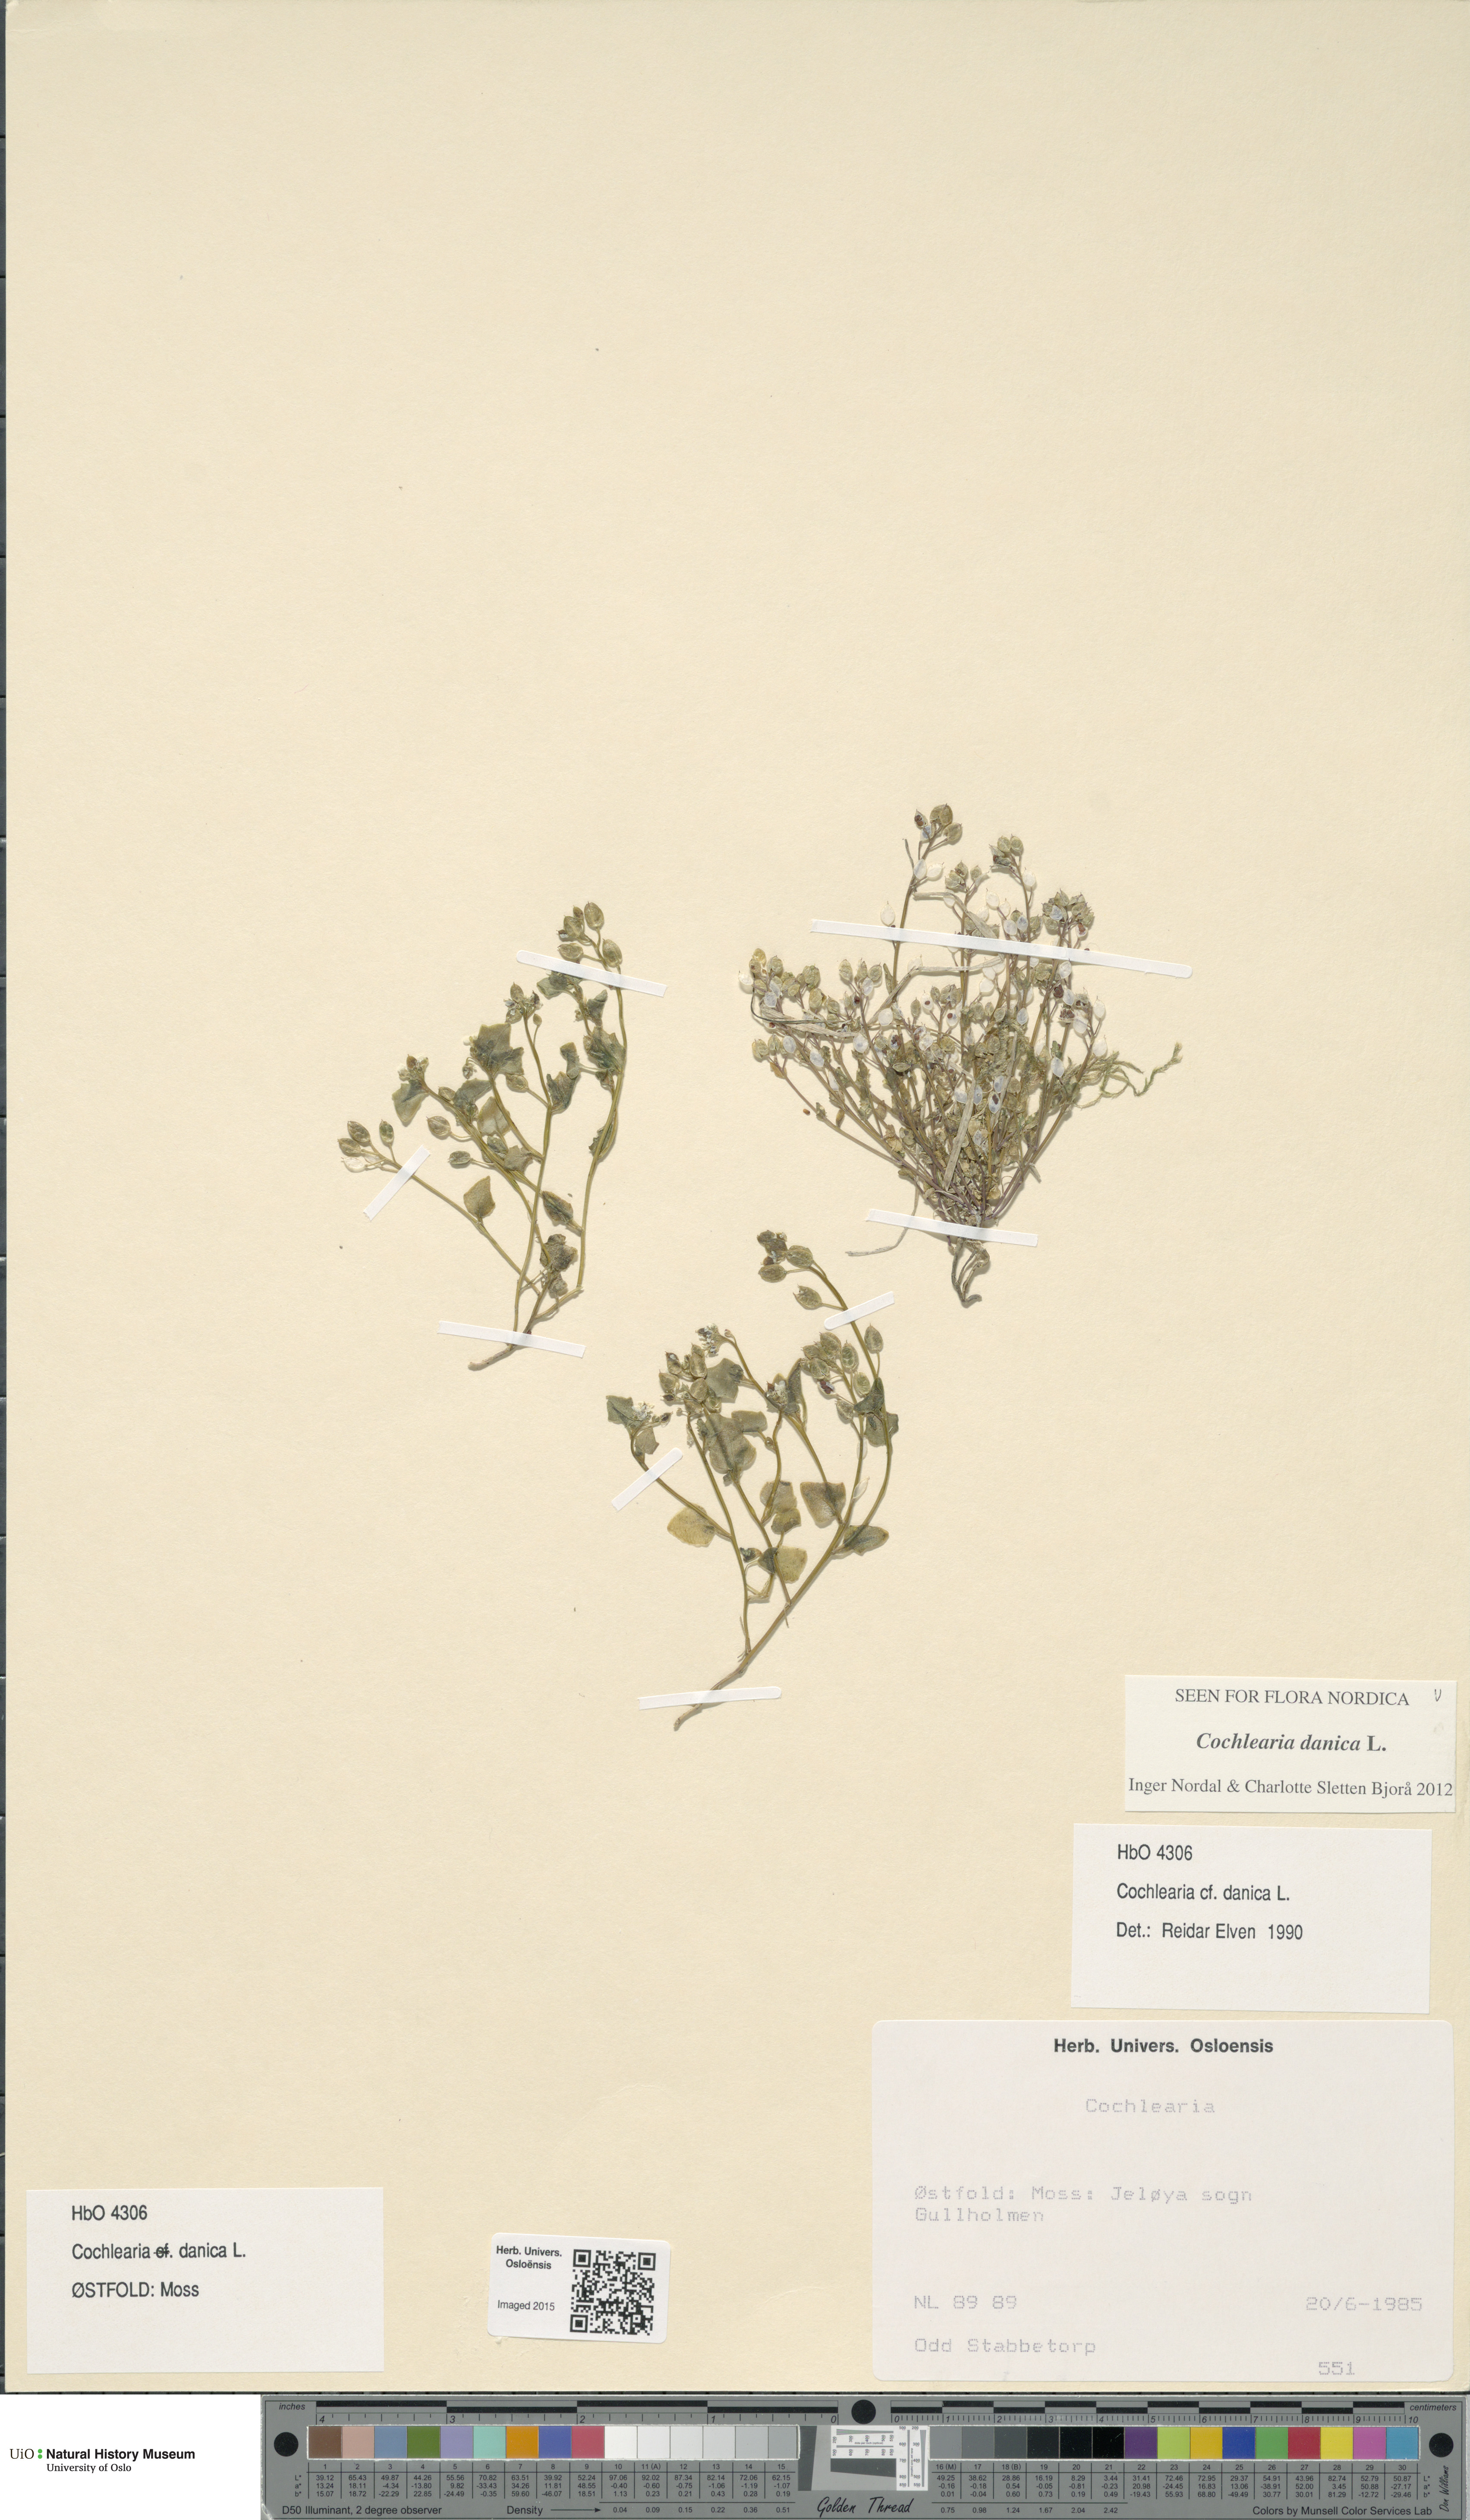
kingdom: Plantae
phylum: Tracheophyta
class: Magnoliopsida
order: Brassicales
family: Brassicaceae
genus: Cochlearia
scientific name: Cochlearia danica
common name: Early scurvygrass
